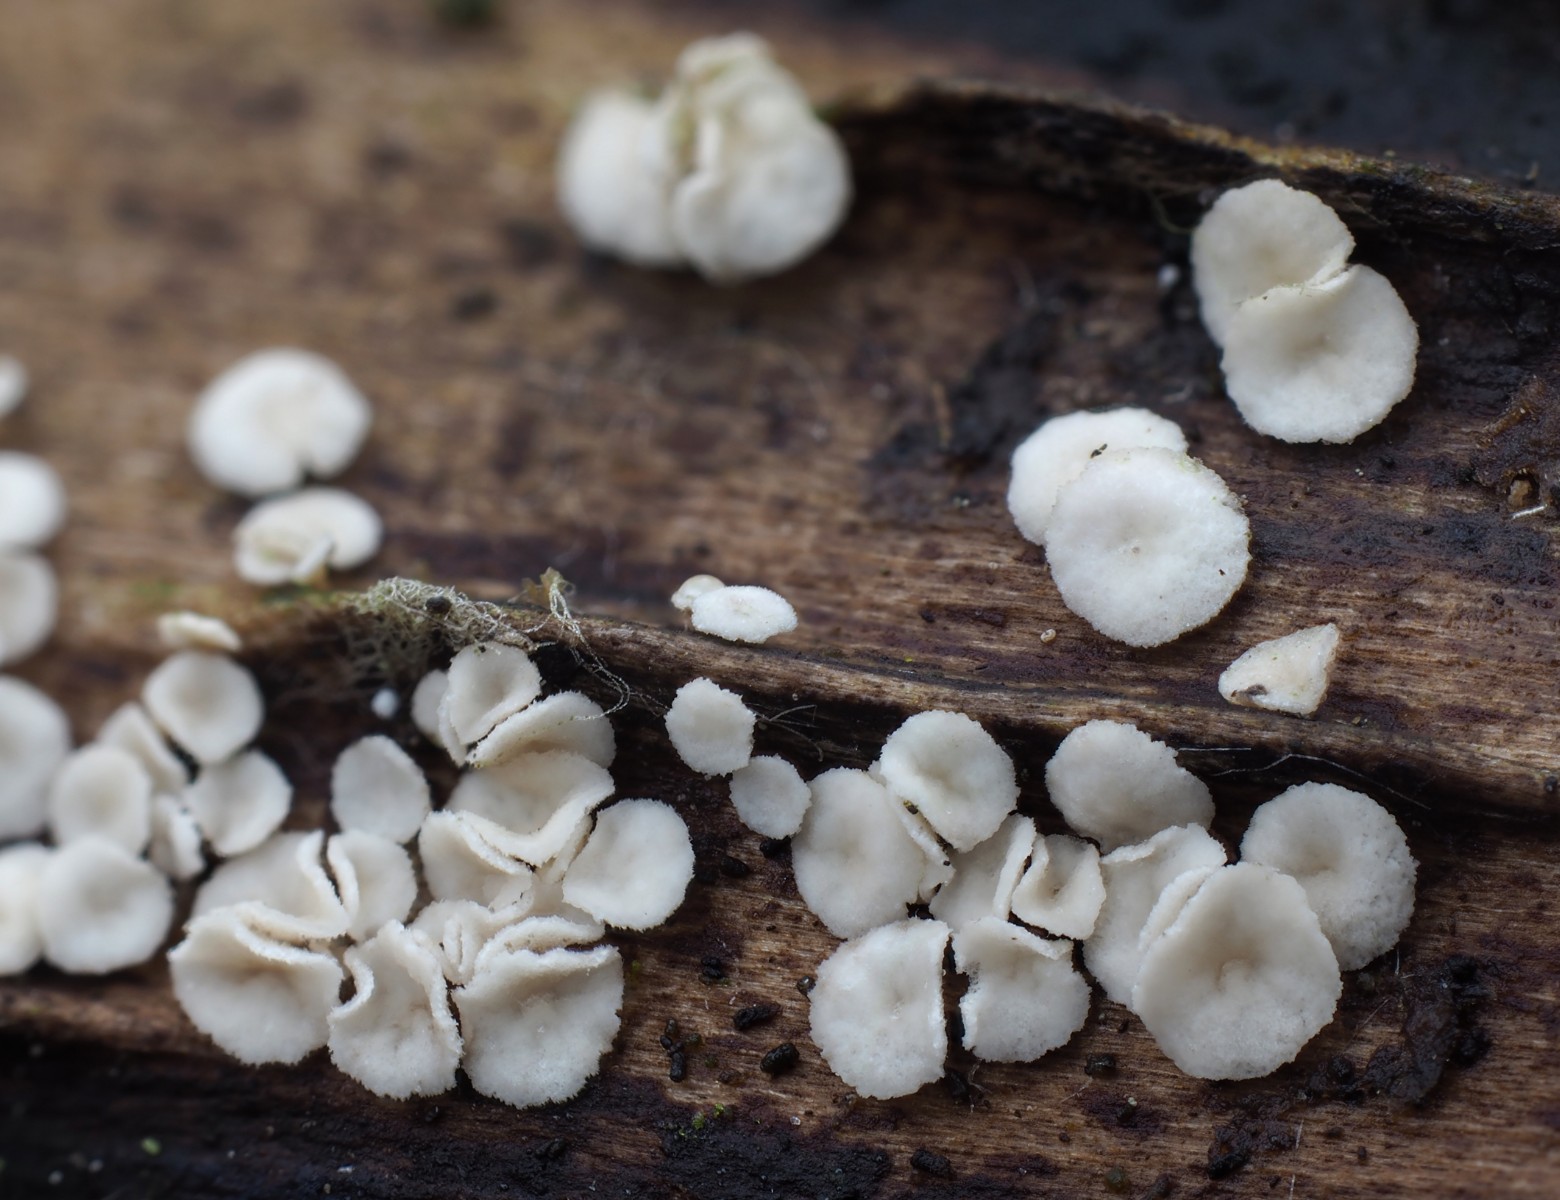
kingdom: Fungi
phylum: Ascomycota
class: Leotiomycetes
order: Helotiales
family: Pezizellaceae
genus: Calycina
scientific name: Calycina vulgaris
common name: pølsesporet gulskive
